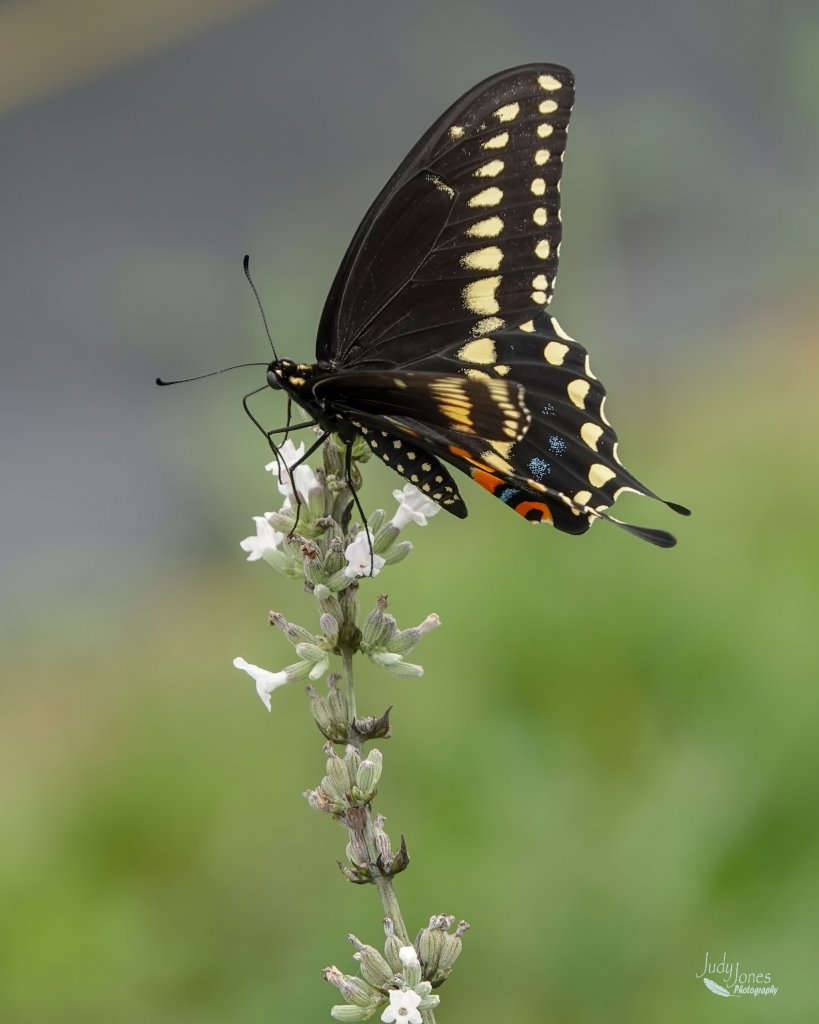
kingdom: Animalia
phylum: Arthropoda
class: Insecta
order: Lepidoptera
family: Papilionidae
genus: Papilio
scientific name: Papilio polyxenes
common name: Black Swallowtail
